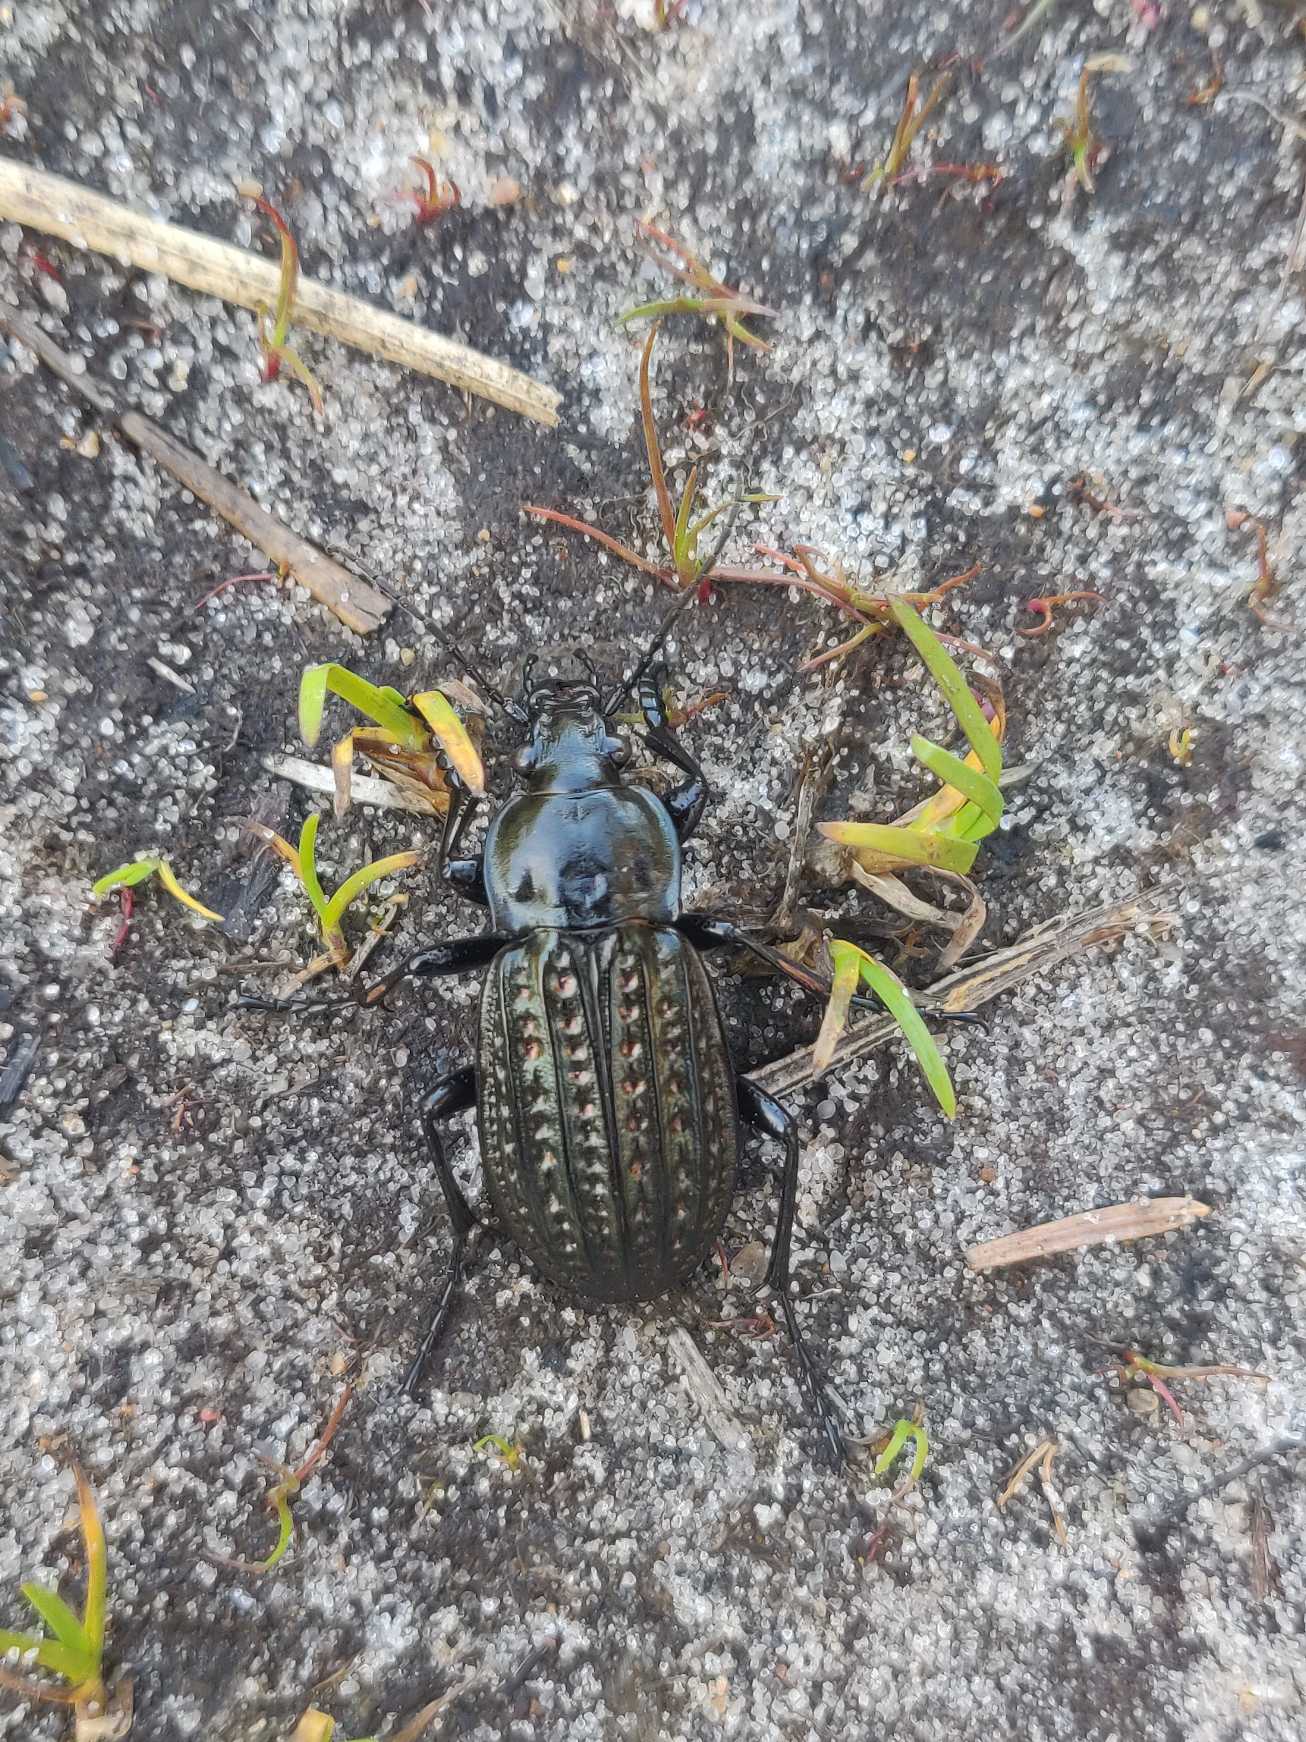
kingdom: Animalia
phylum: Arthropoda
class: Insecta
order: Coleoptera
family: Carabidae
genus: Carabus
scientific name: Carabus clatratus
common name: Dyndløber
